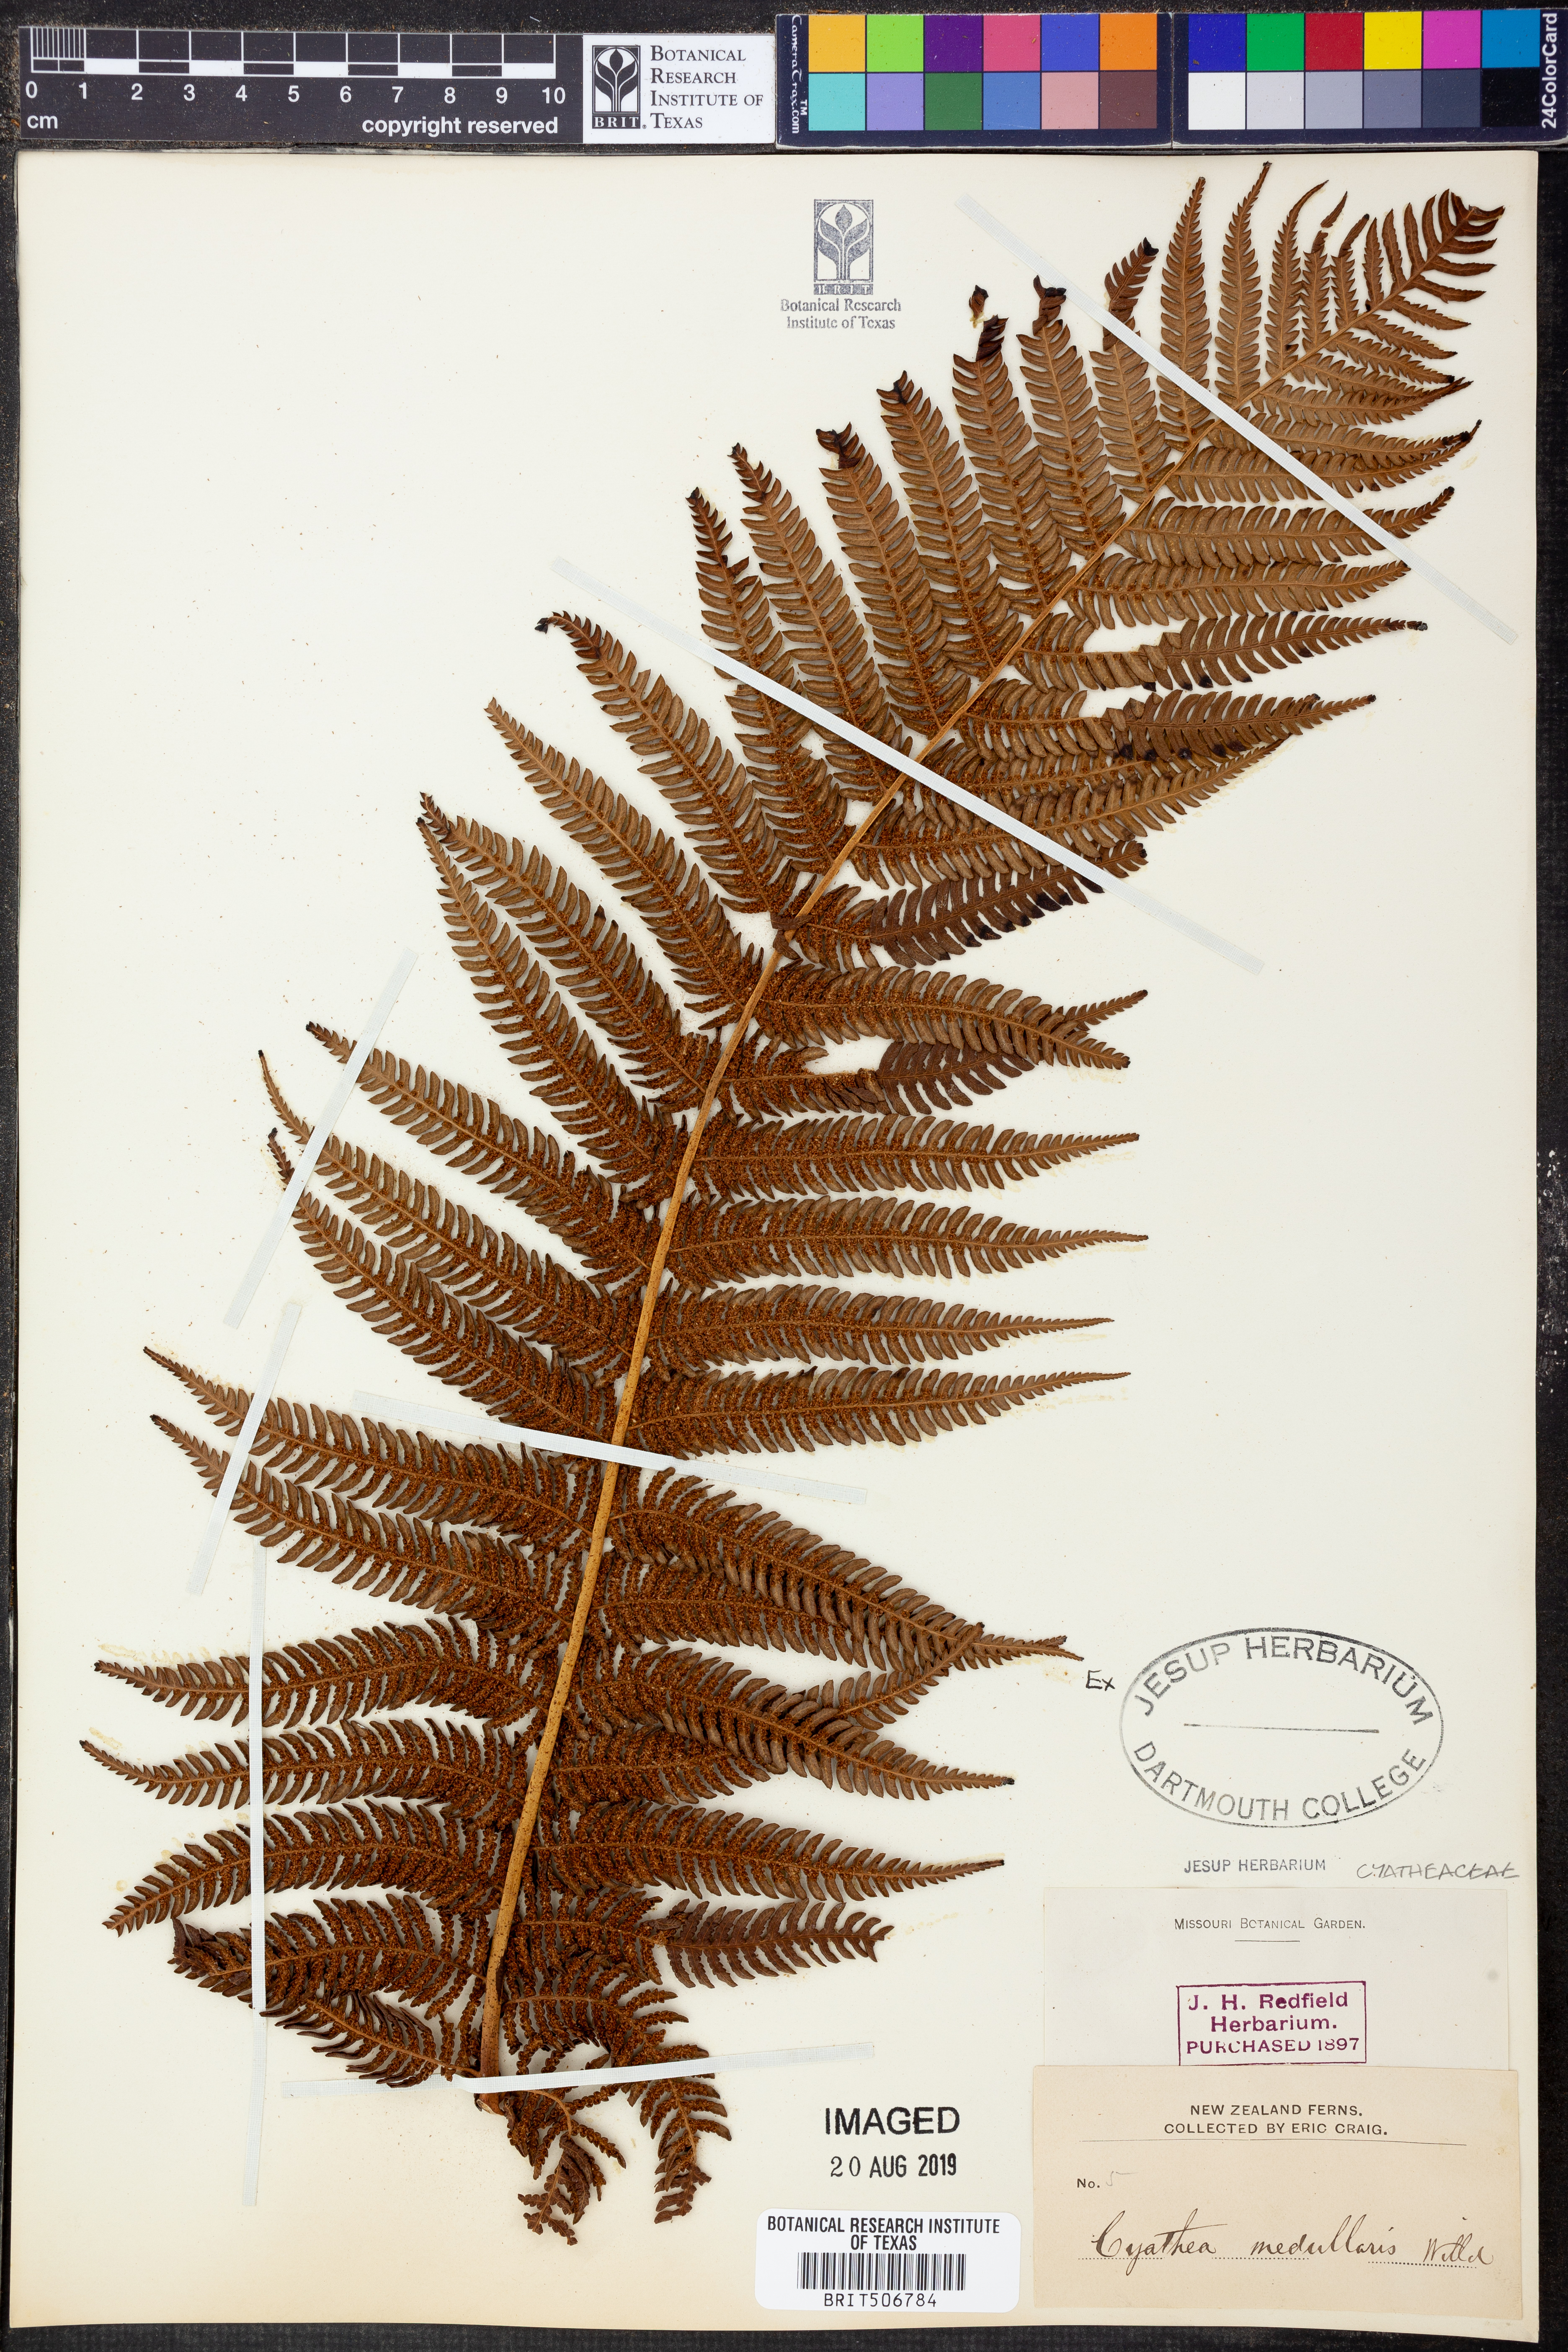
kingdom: Plantae
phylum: Tracheophyta
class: Polypodiopsida
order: Cyatheales
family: Cyatheaceae
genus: Sphaeropteris
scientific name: Sphaeropteris medullaris
